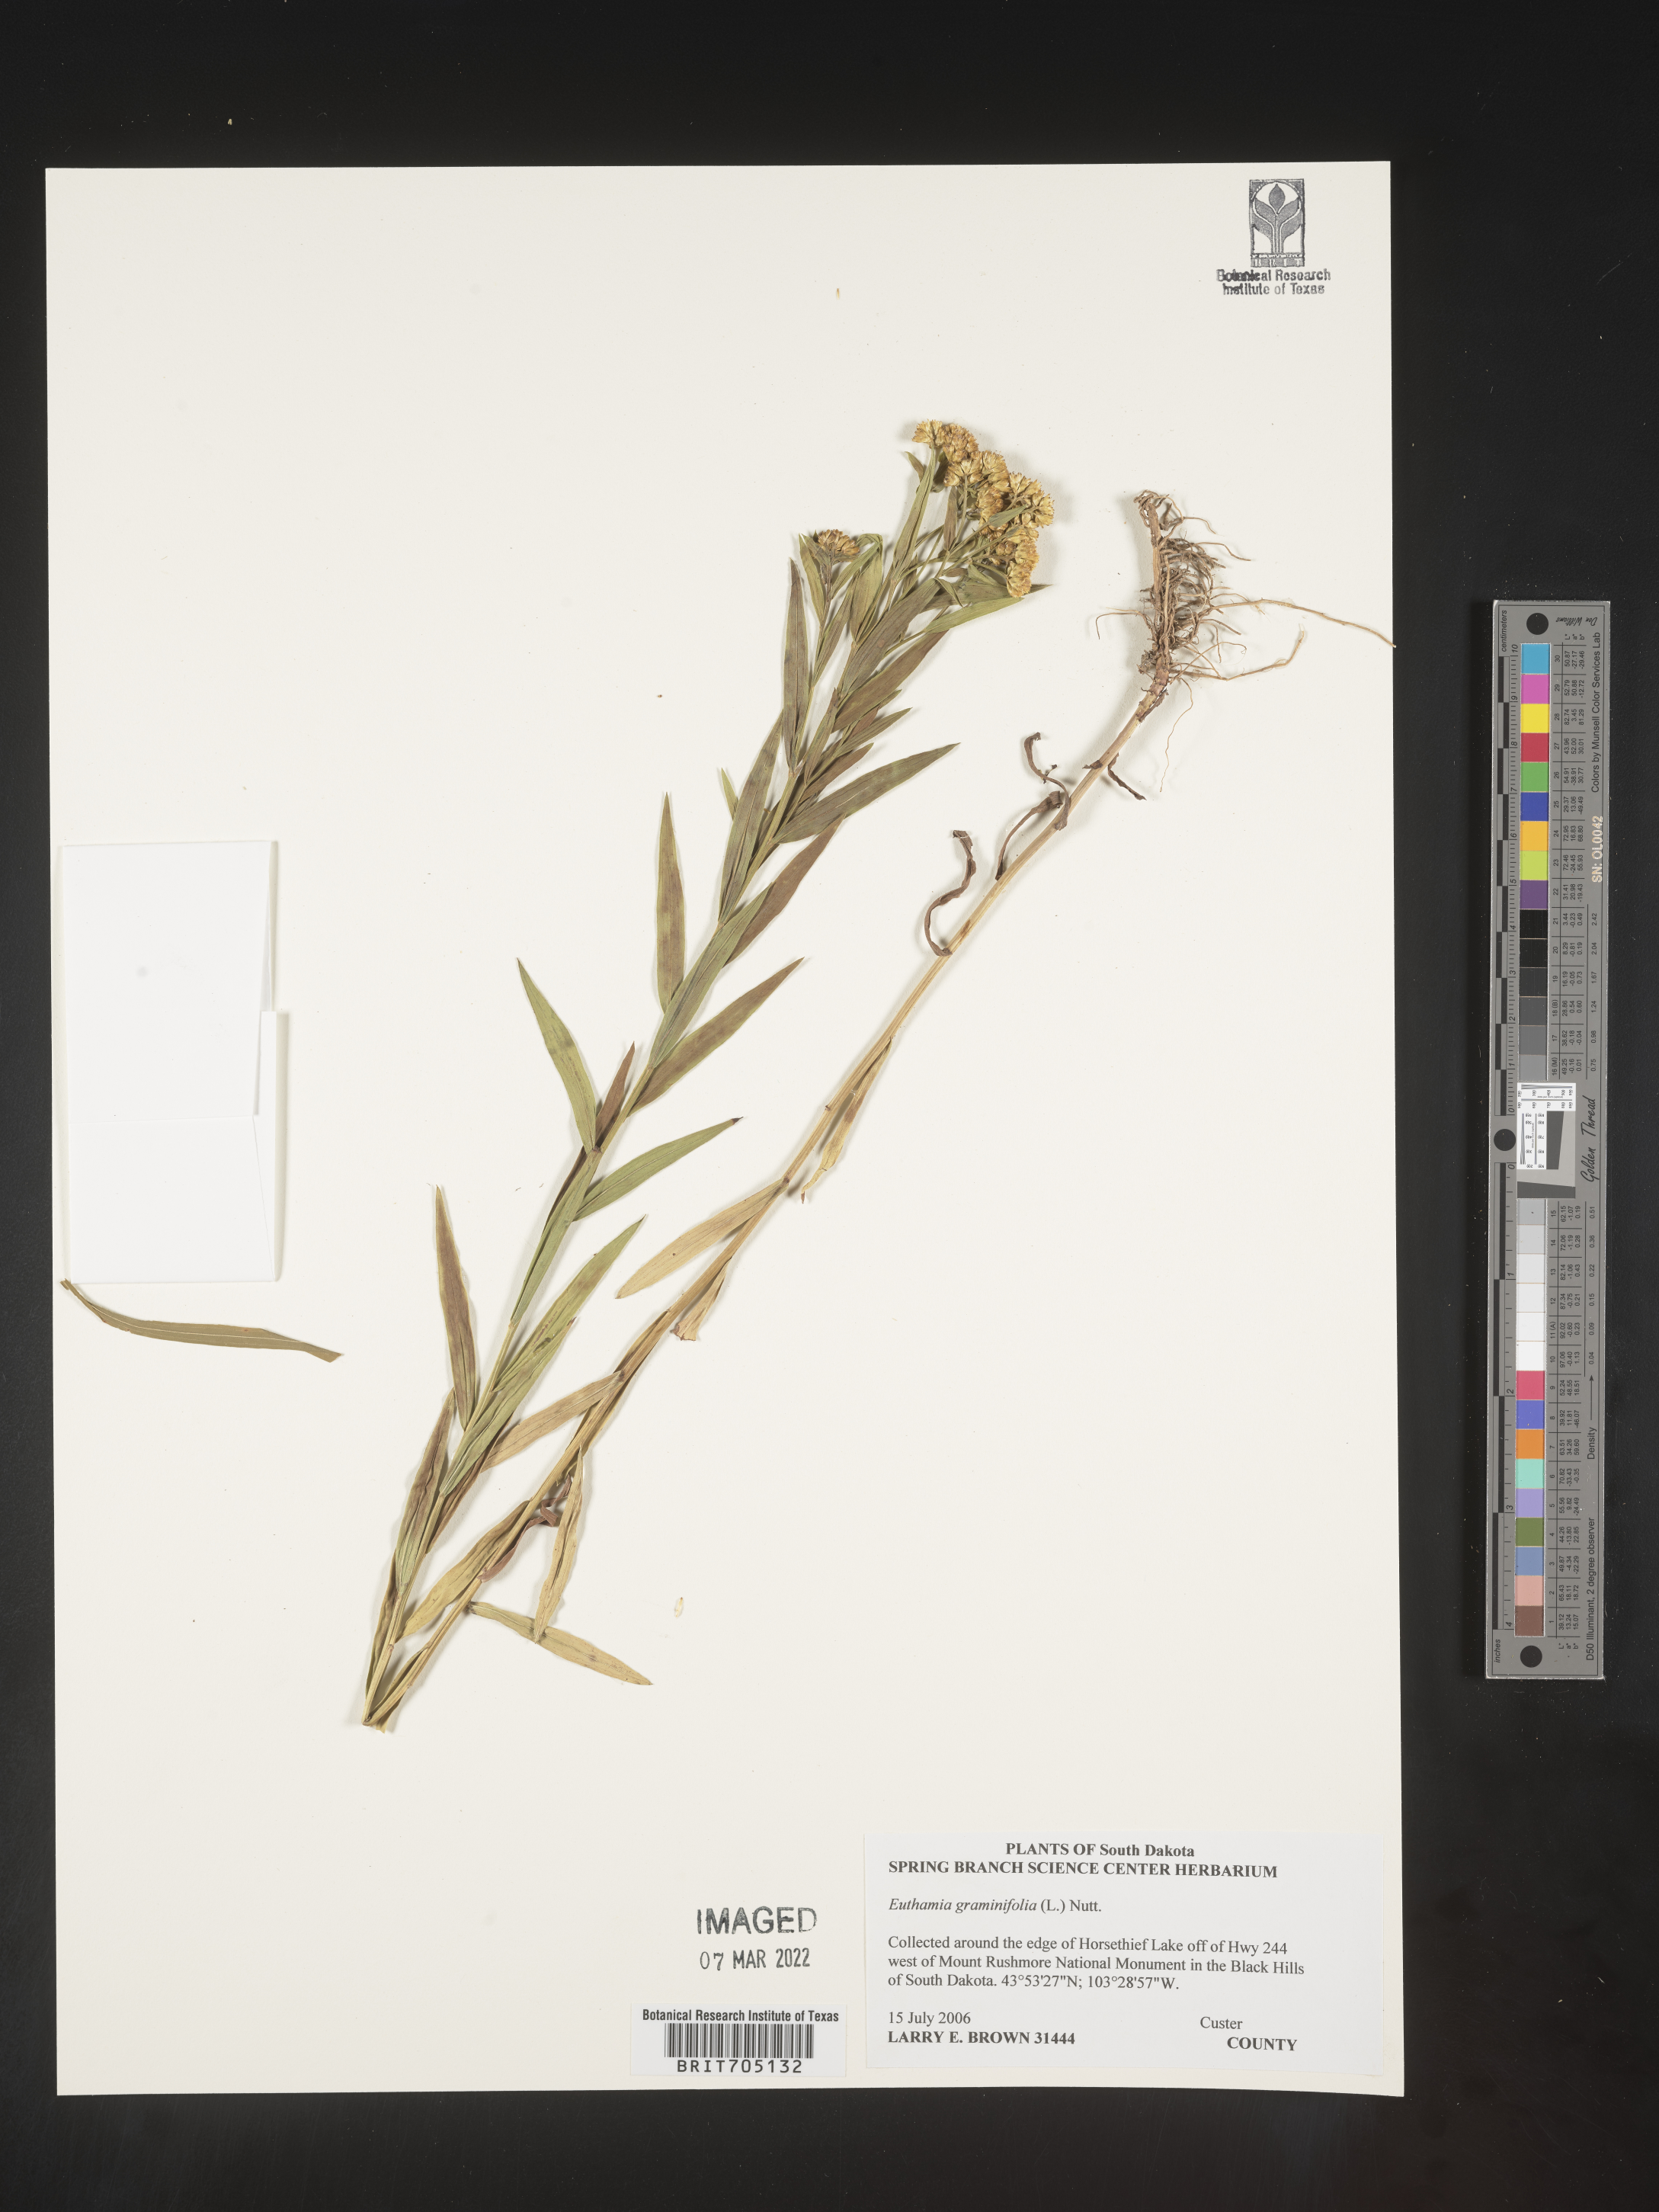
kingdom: Plantae
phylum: Tracheophyta
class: Magnoliopsida
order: Asterales
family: Asteraceae
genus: Euthamia
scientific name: Euthamia graminifolia
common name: Common goldentop
